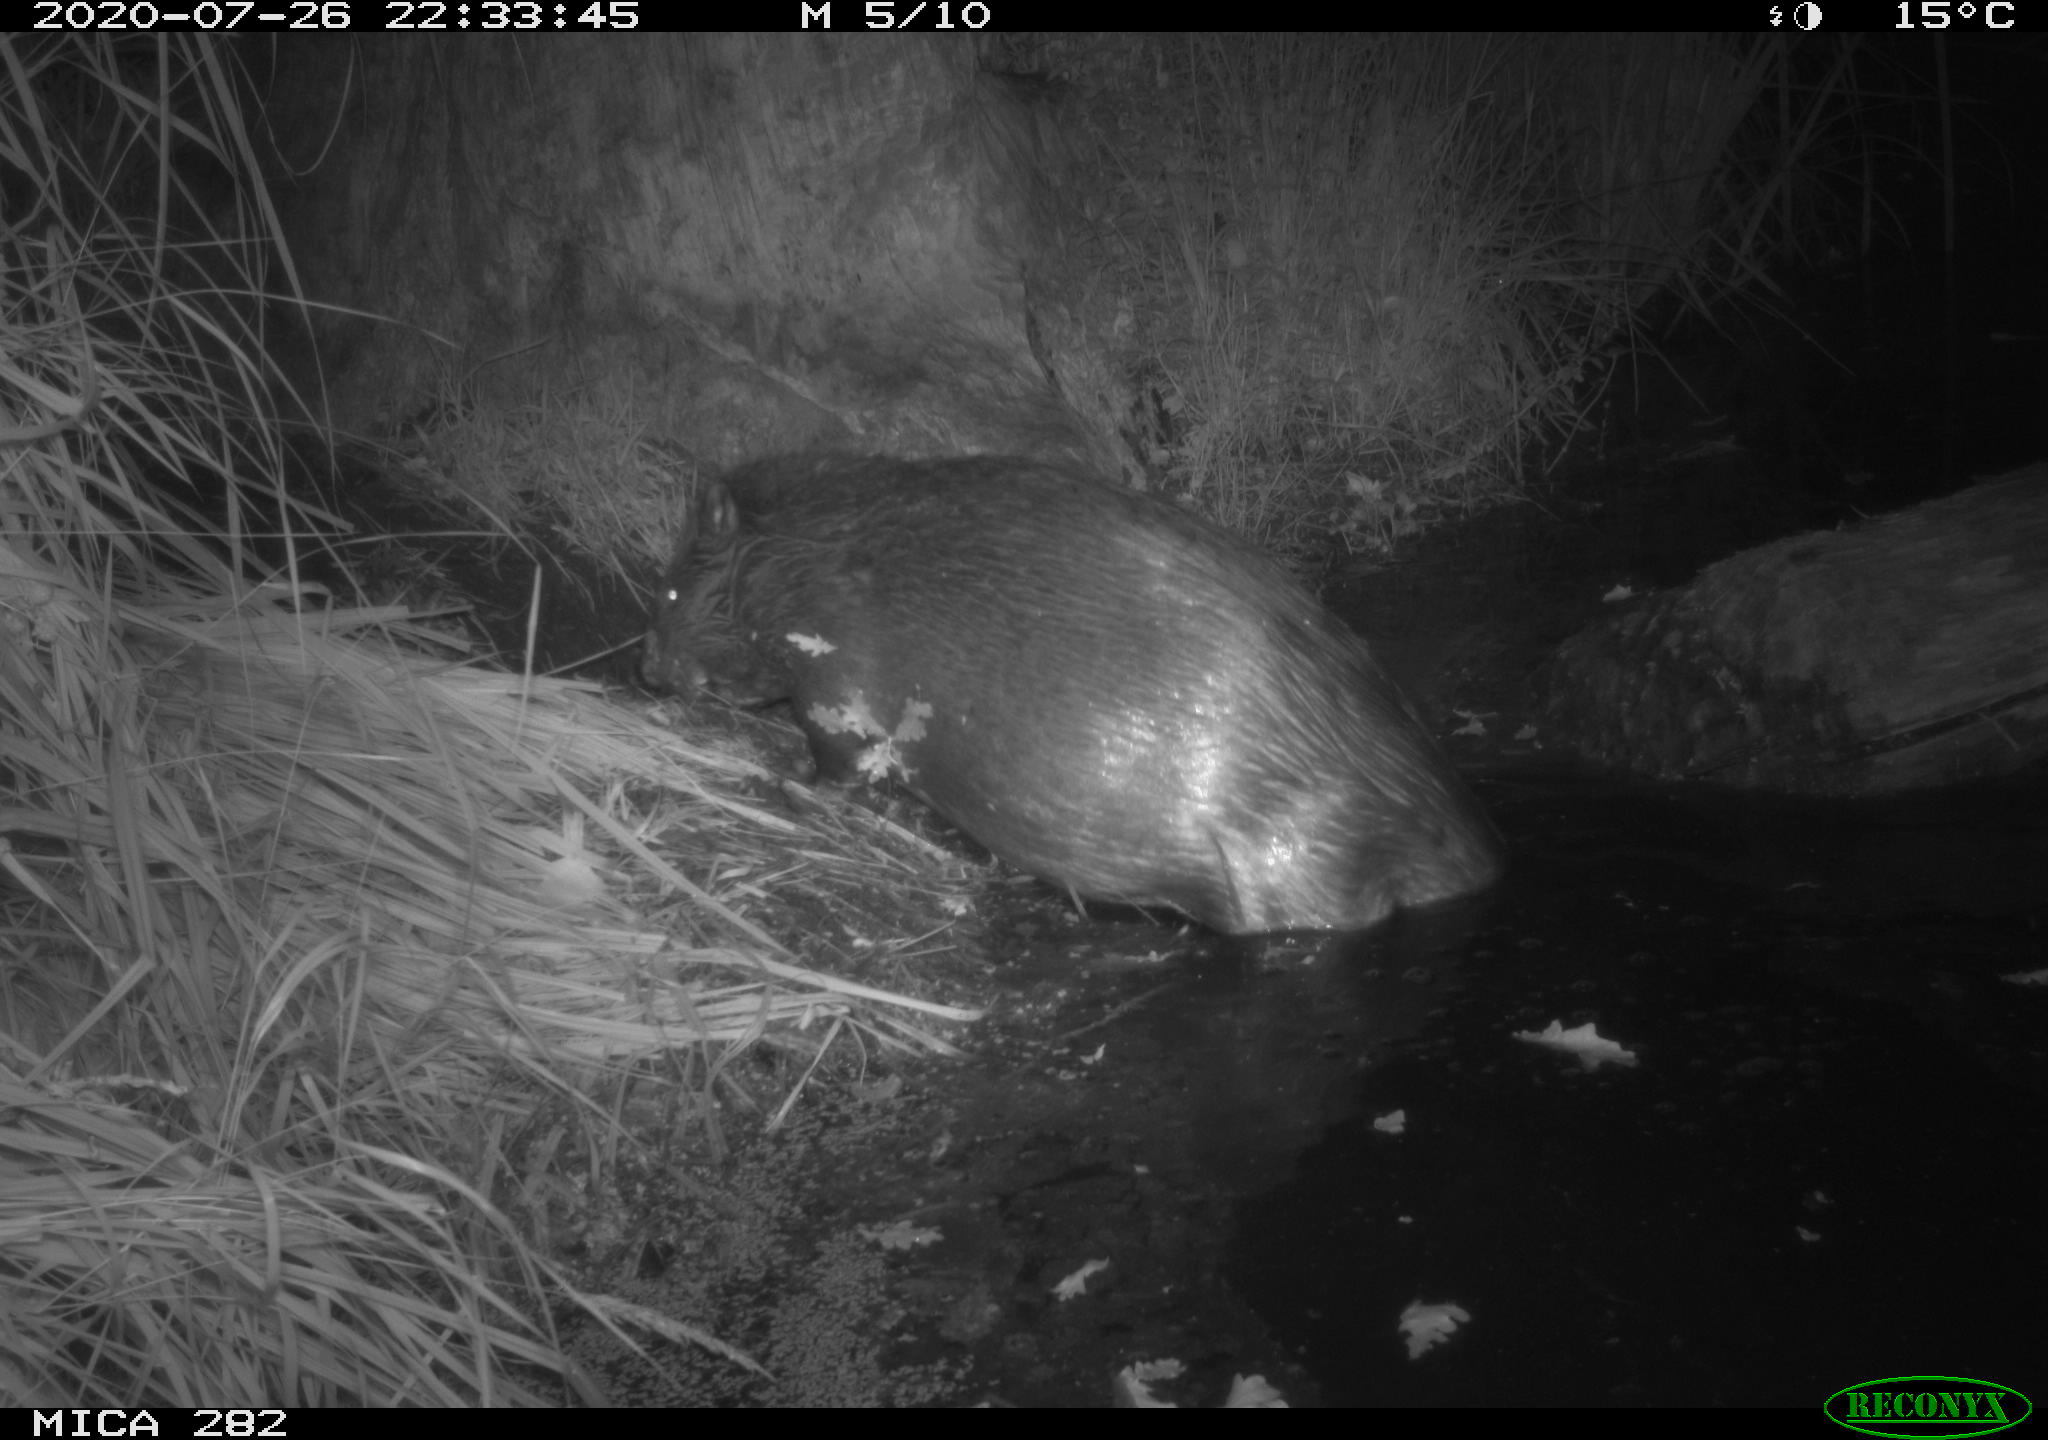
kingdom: Animalia
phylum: Chordata
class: Mammalia
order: Rodentia
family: Castoridae
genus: Castor
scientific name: Castor fiber
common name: Eurasian beaver
